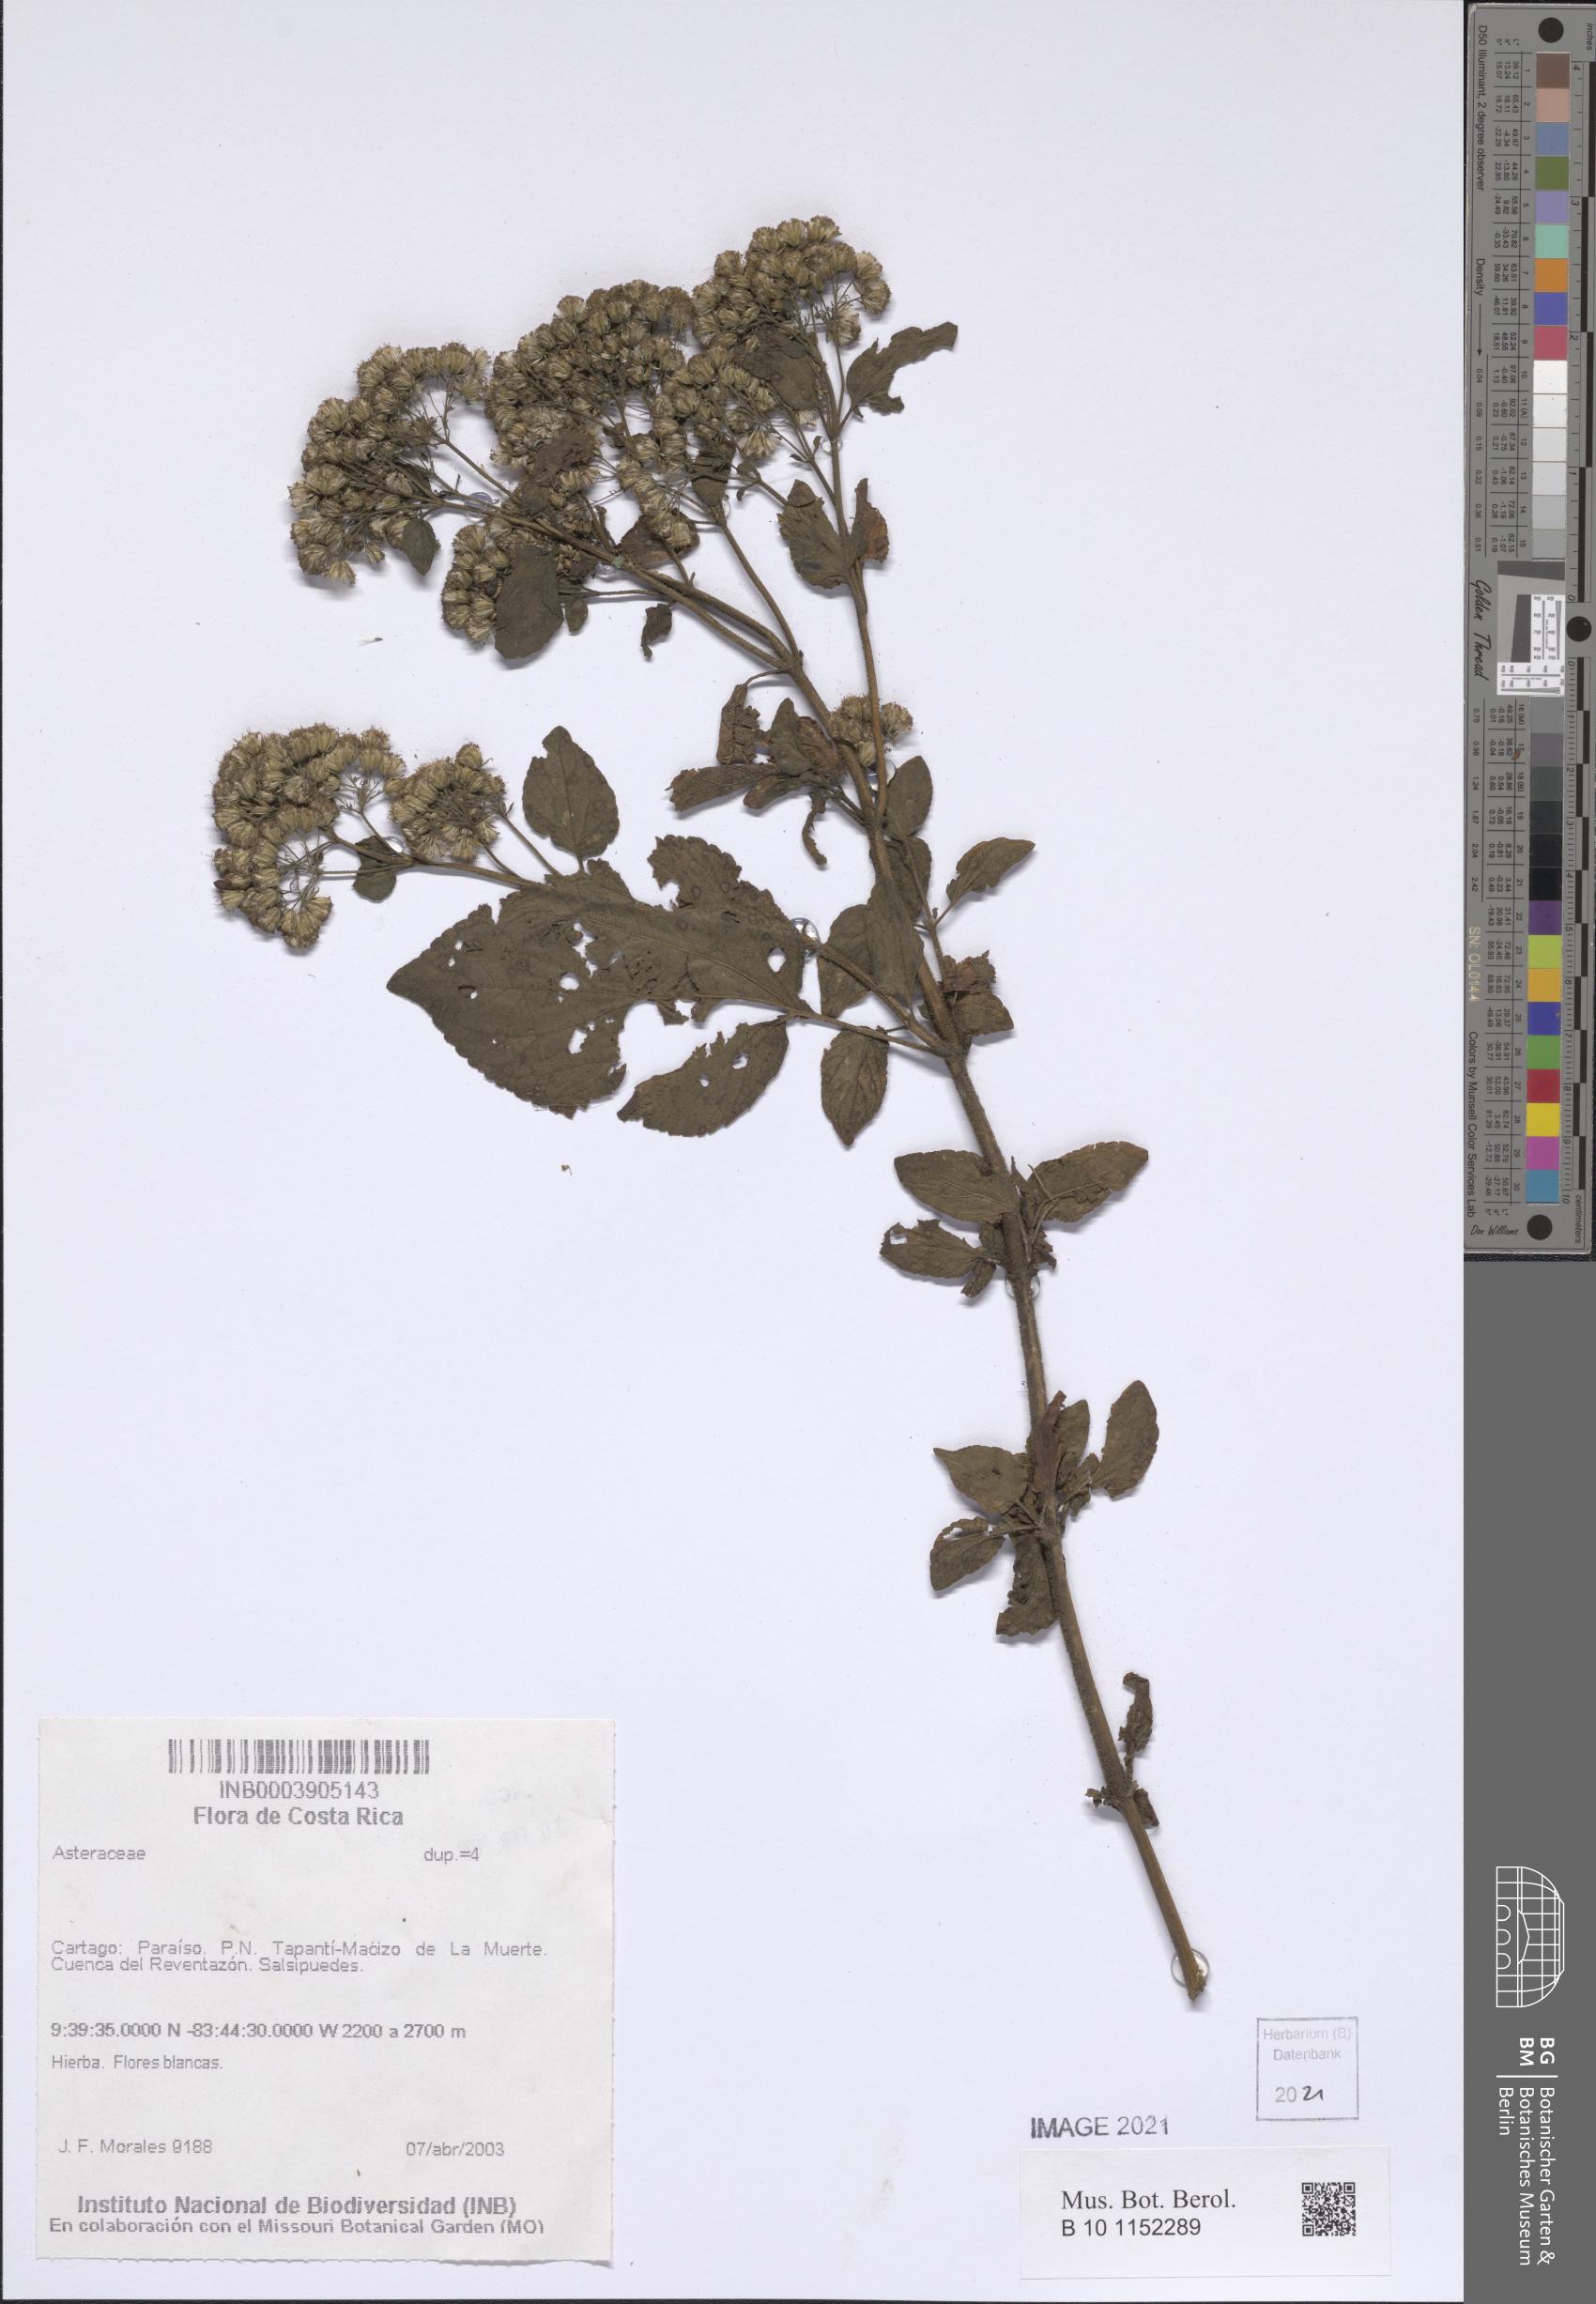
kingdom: Plantae
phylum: Tracheophyta
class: Magnoliopsida
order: Asterales
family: Asteraceae
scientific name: Asteraceae
